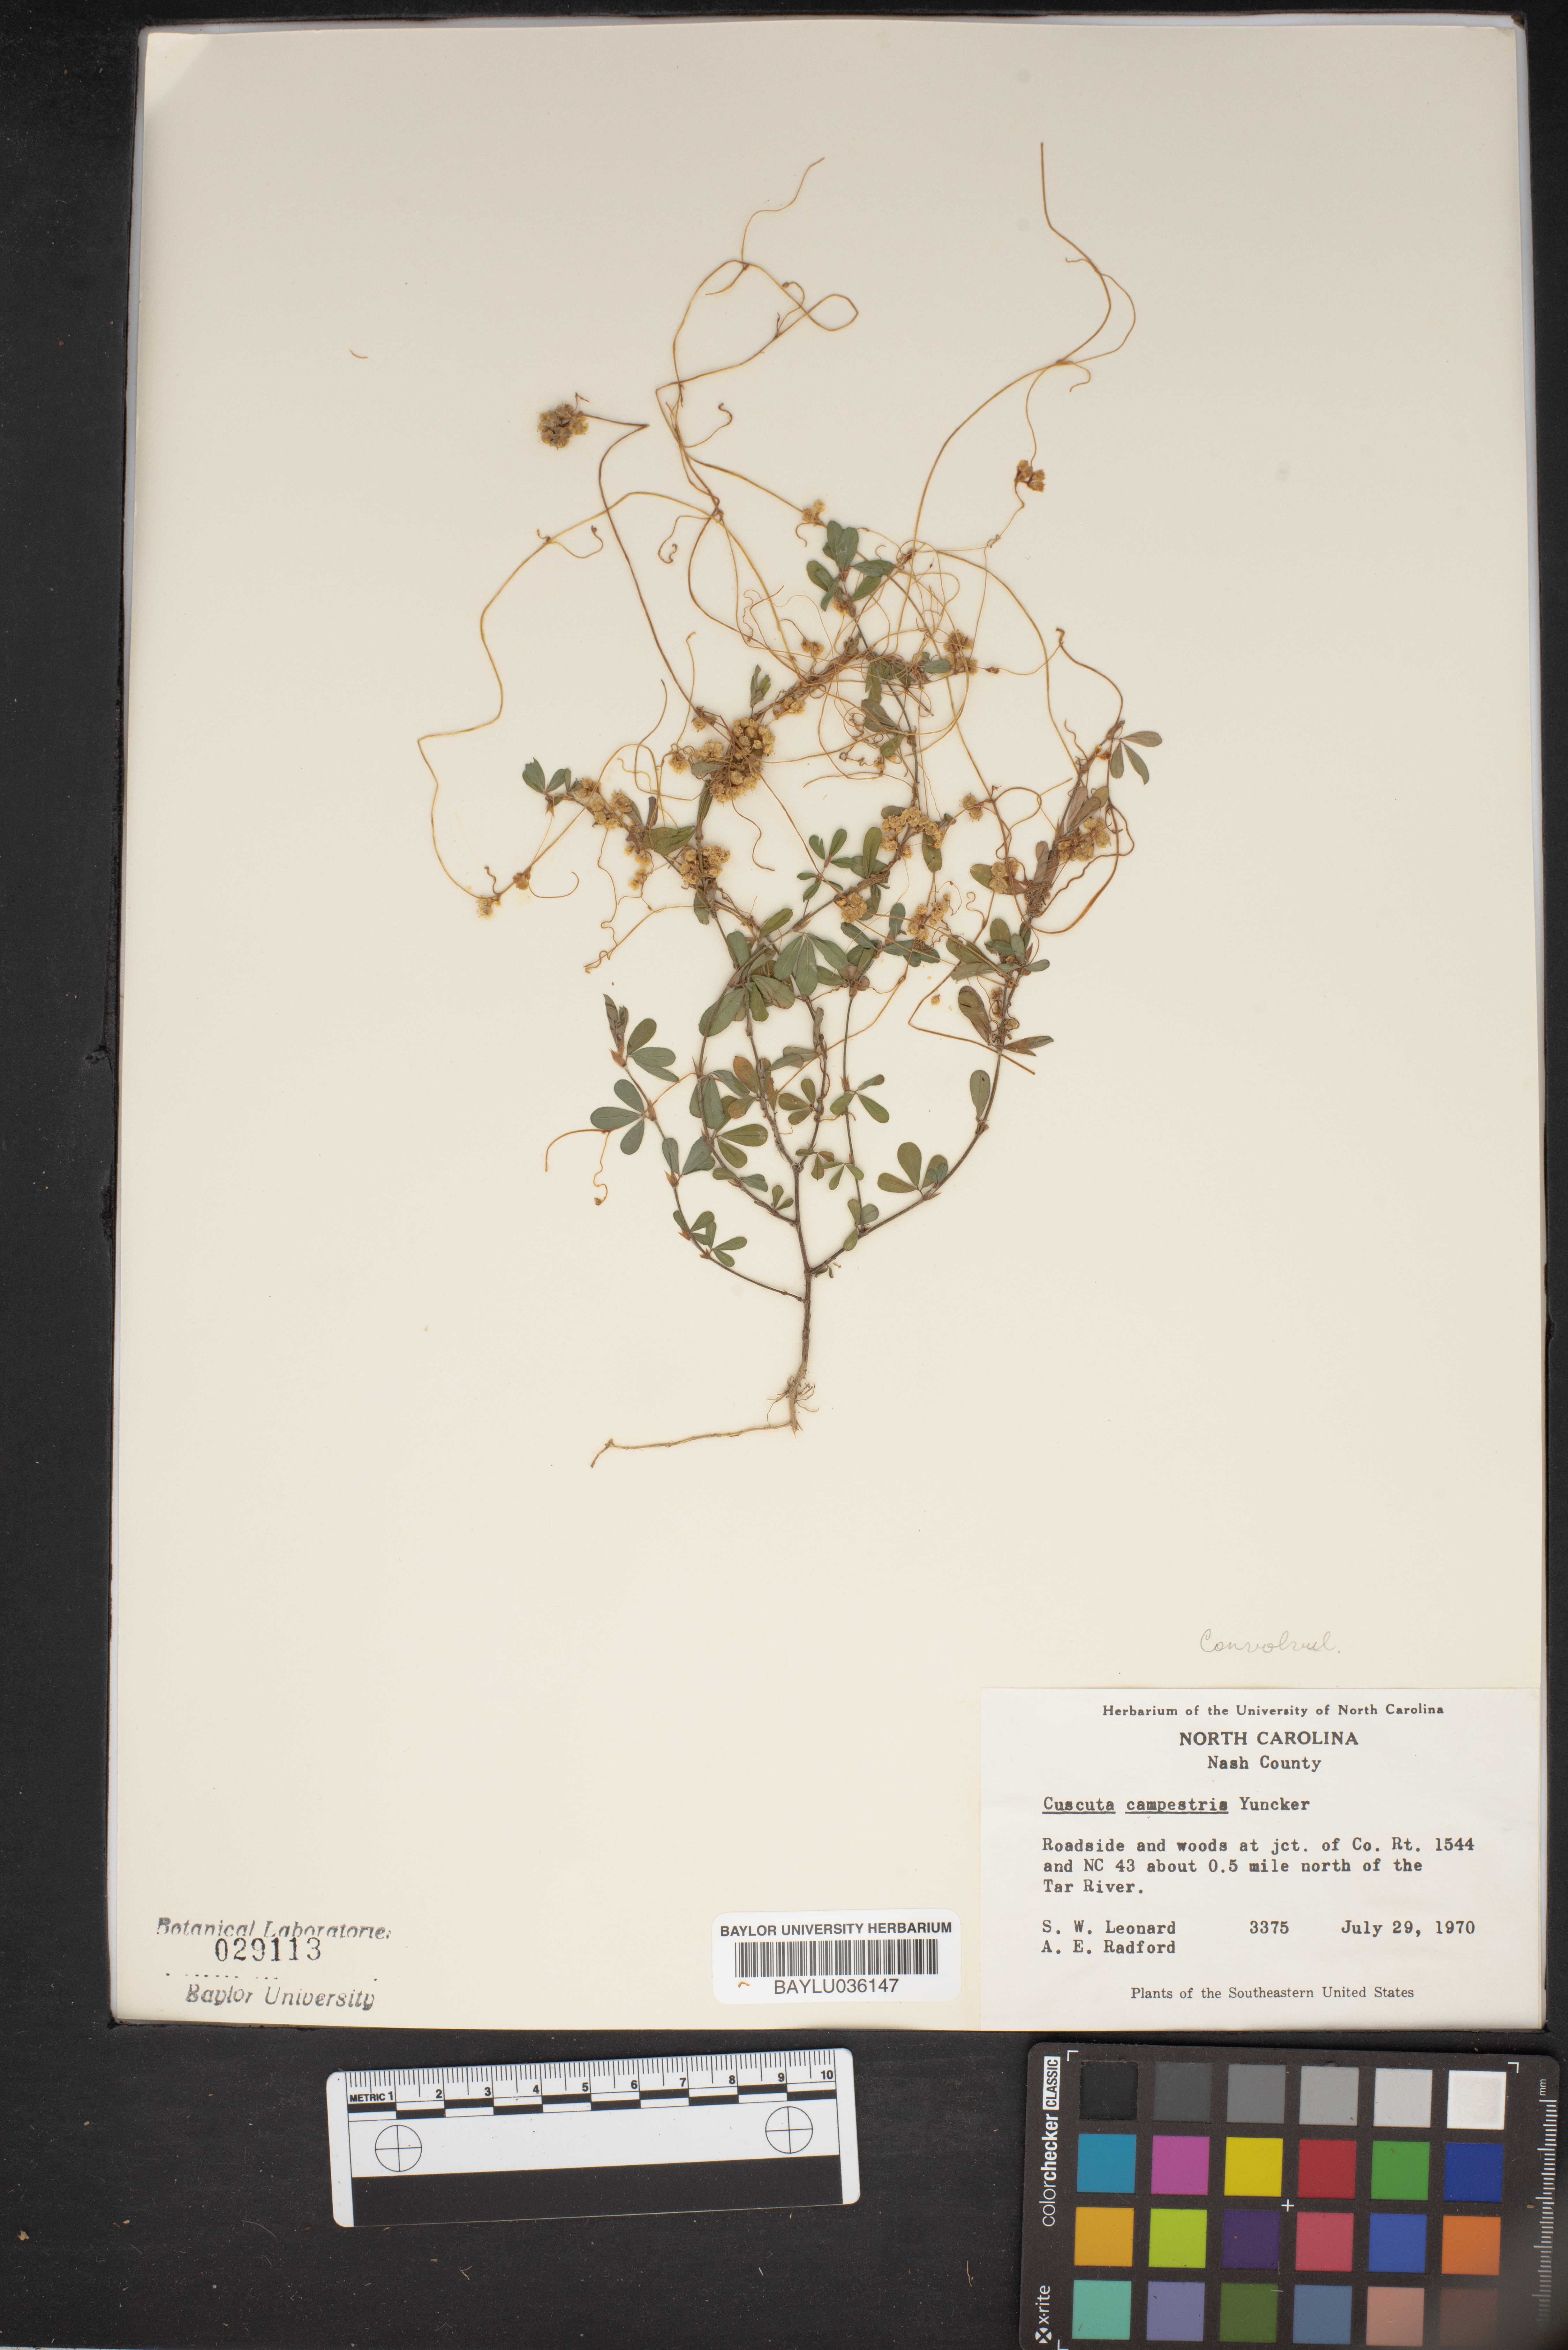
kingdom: Plantae
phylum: Tracheophyta
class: Magnoliopsida
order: Solanales
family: Convolvulaceae
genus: Cuscuta
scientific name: Cuscuta campestris
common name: Yellow dodder
